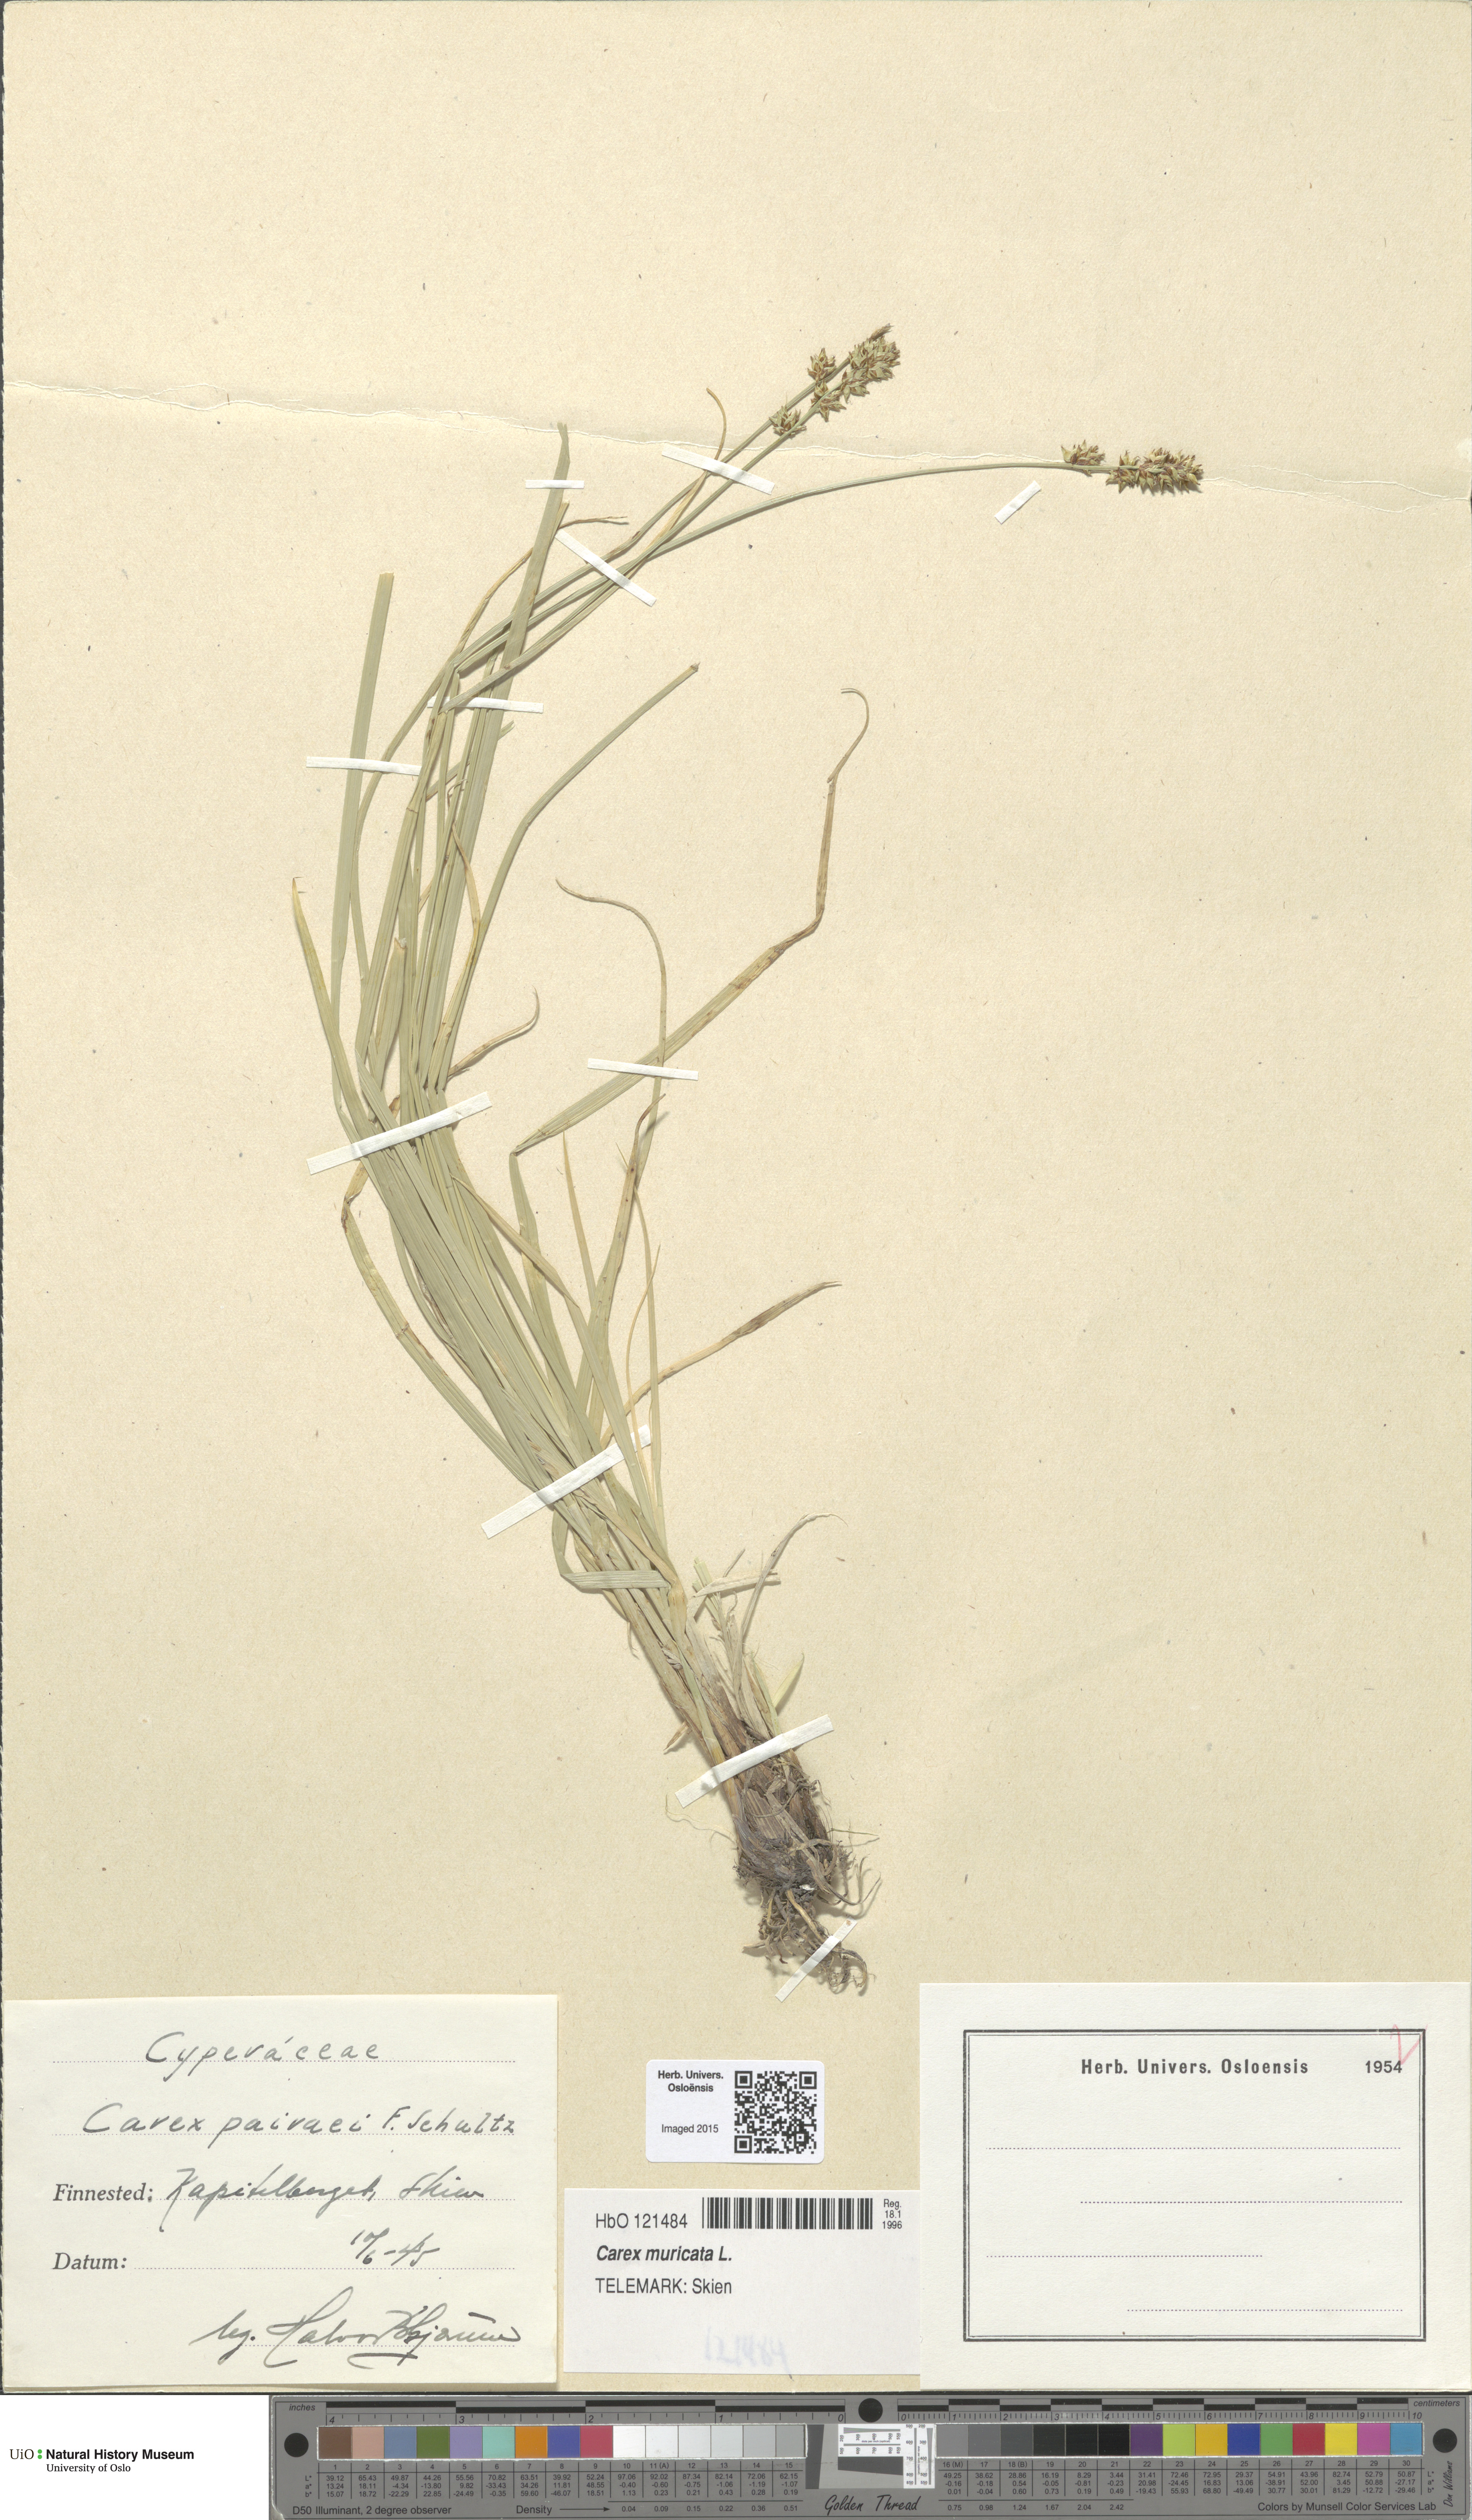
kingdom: Plantae
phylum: Tracheophyta
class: Liliopsida
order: Poales
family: Cyperaceae
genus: Carex
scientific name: Carex pairae
